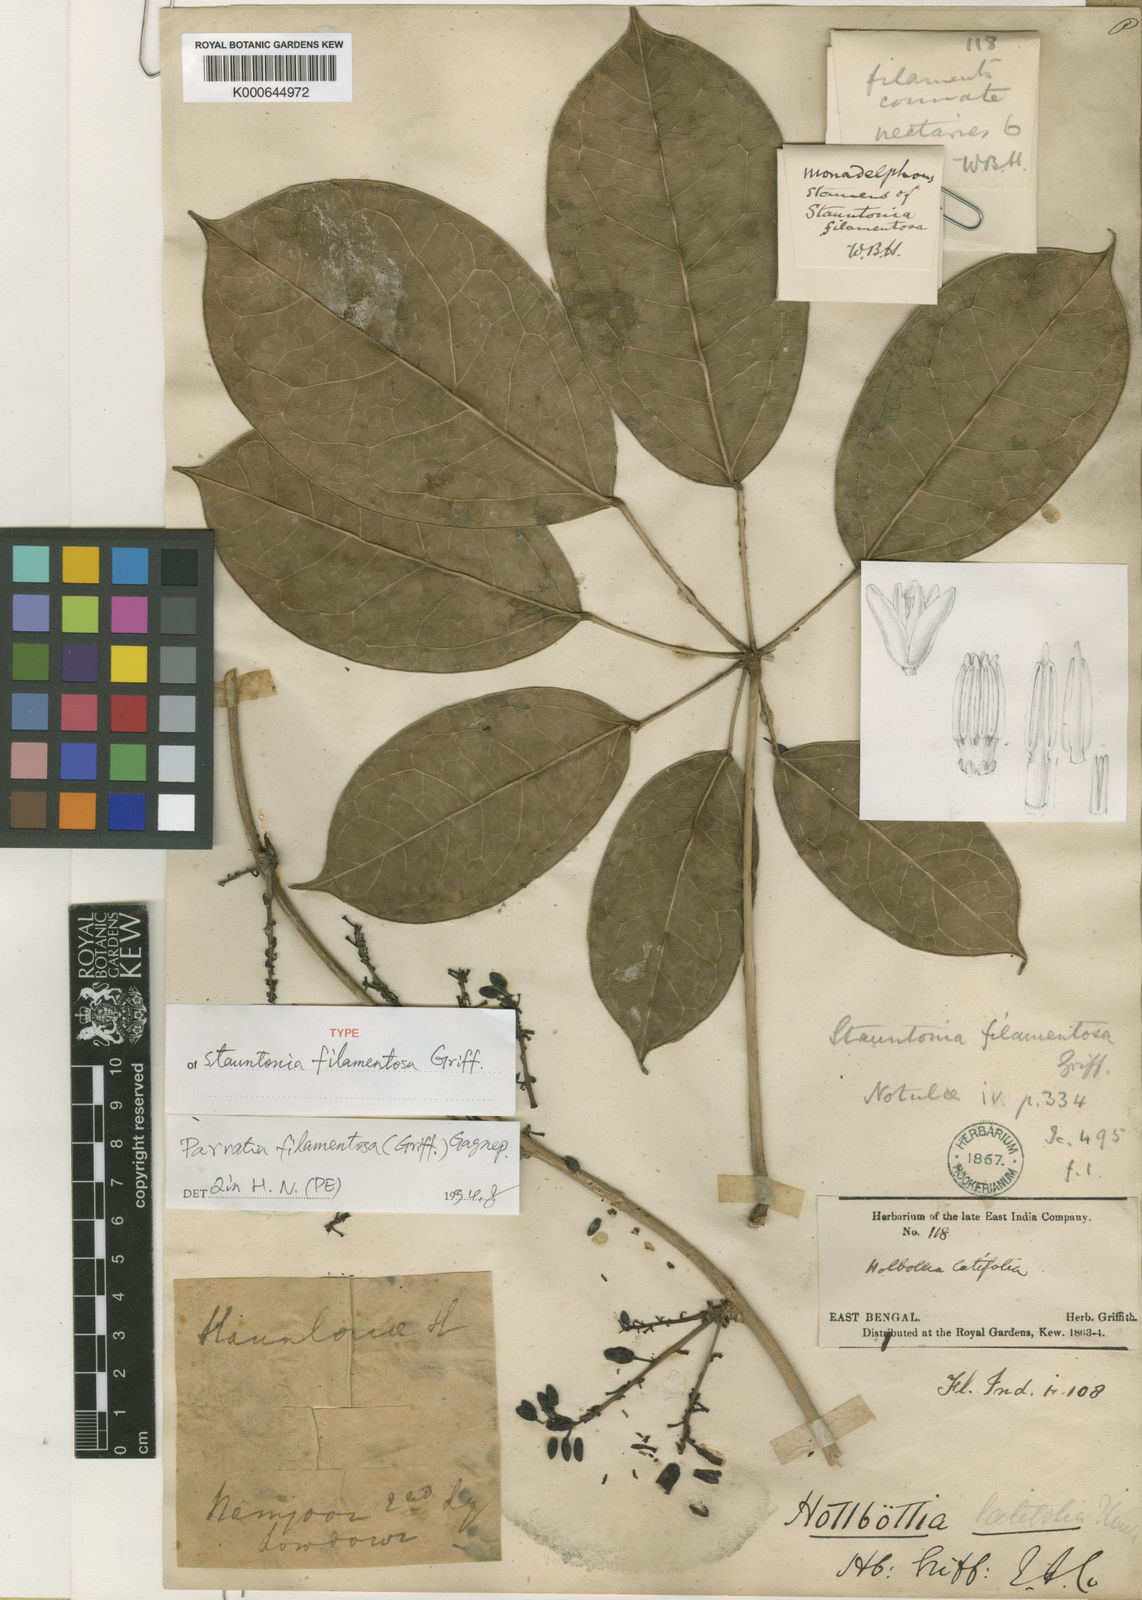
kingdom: Plantae
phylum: Tracheophyta
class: Magnoliopsida
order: Ranunculales
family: Lardizabalaceae
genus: Stauntonia
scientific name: Stauntonia filamentosa
